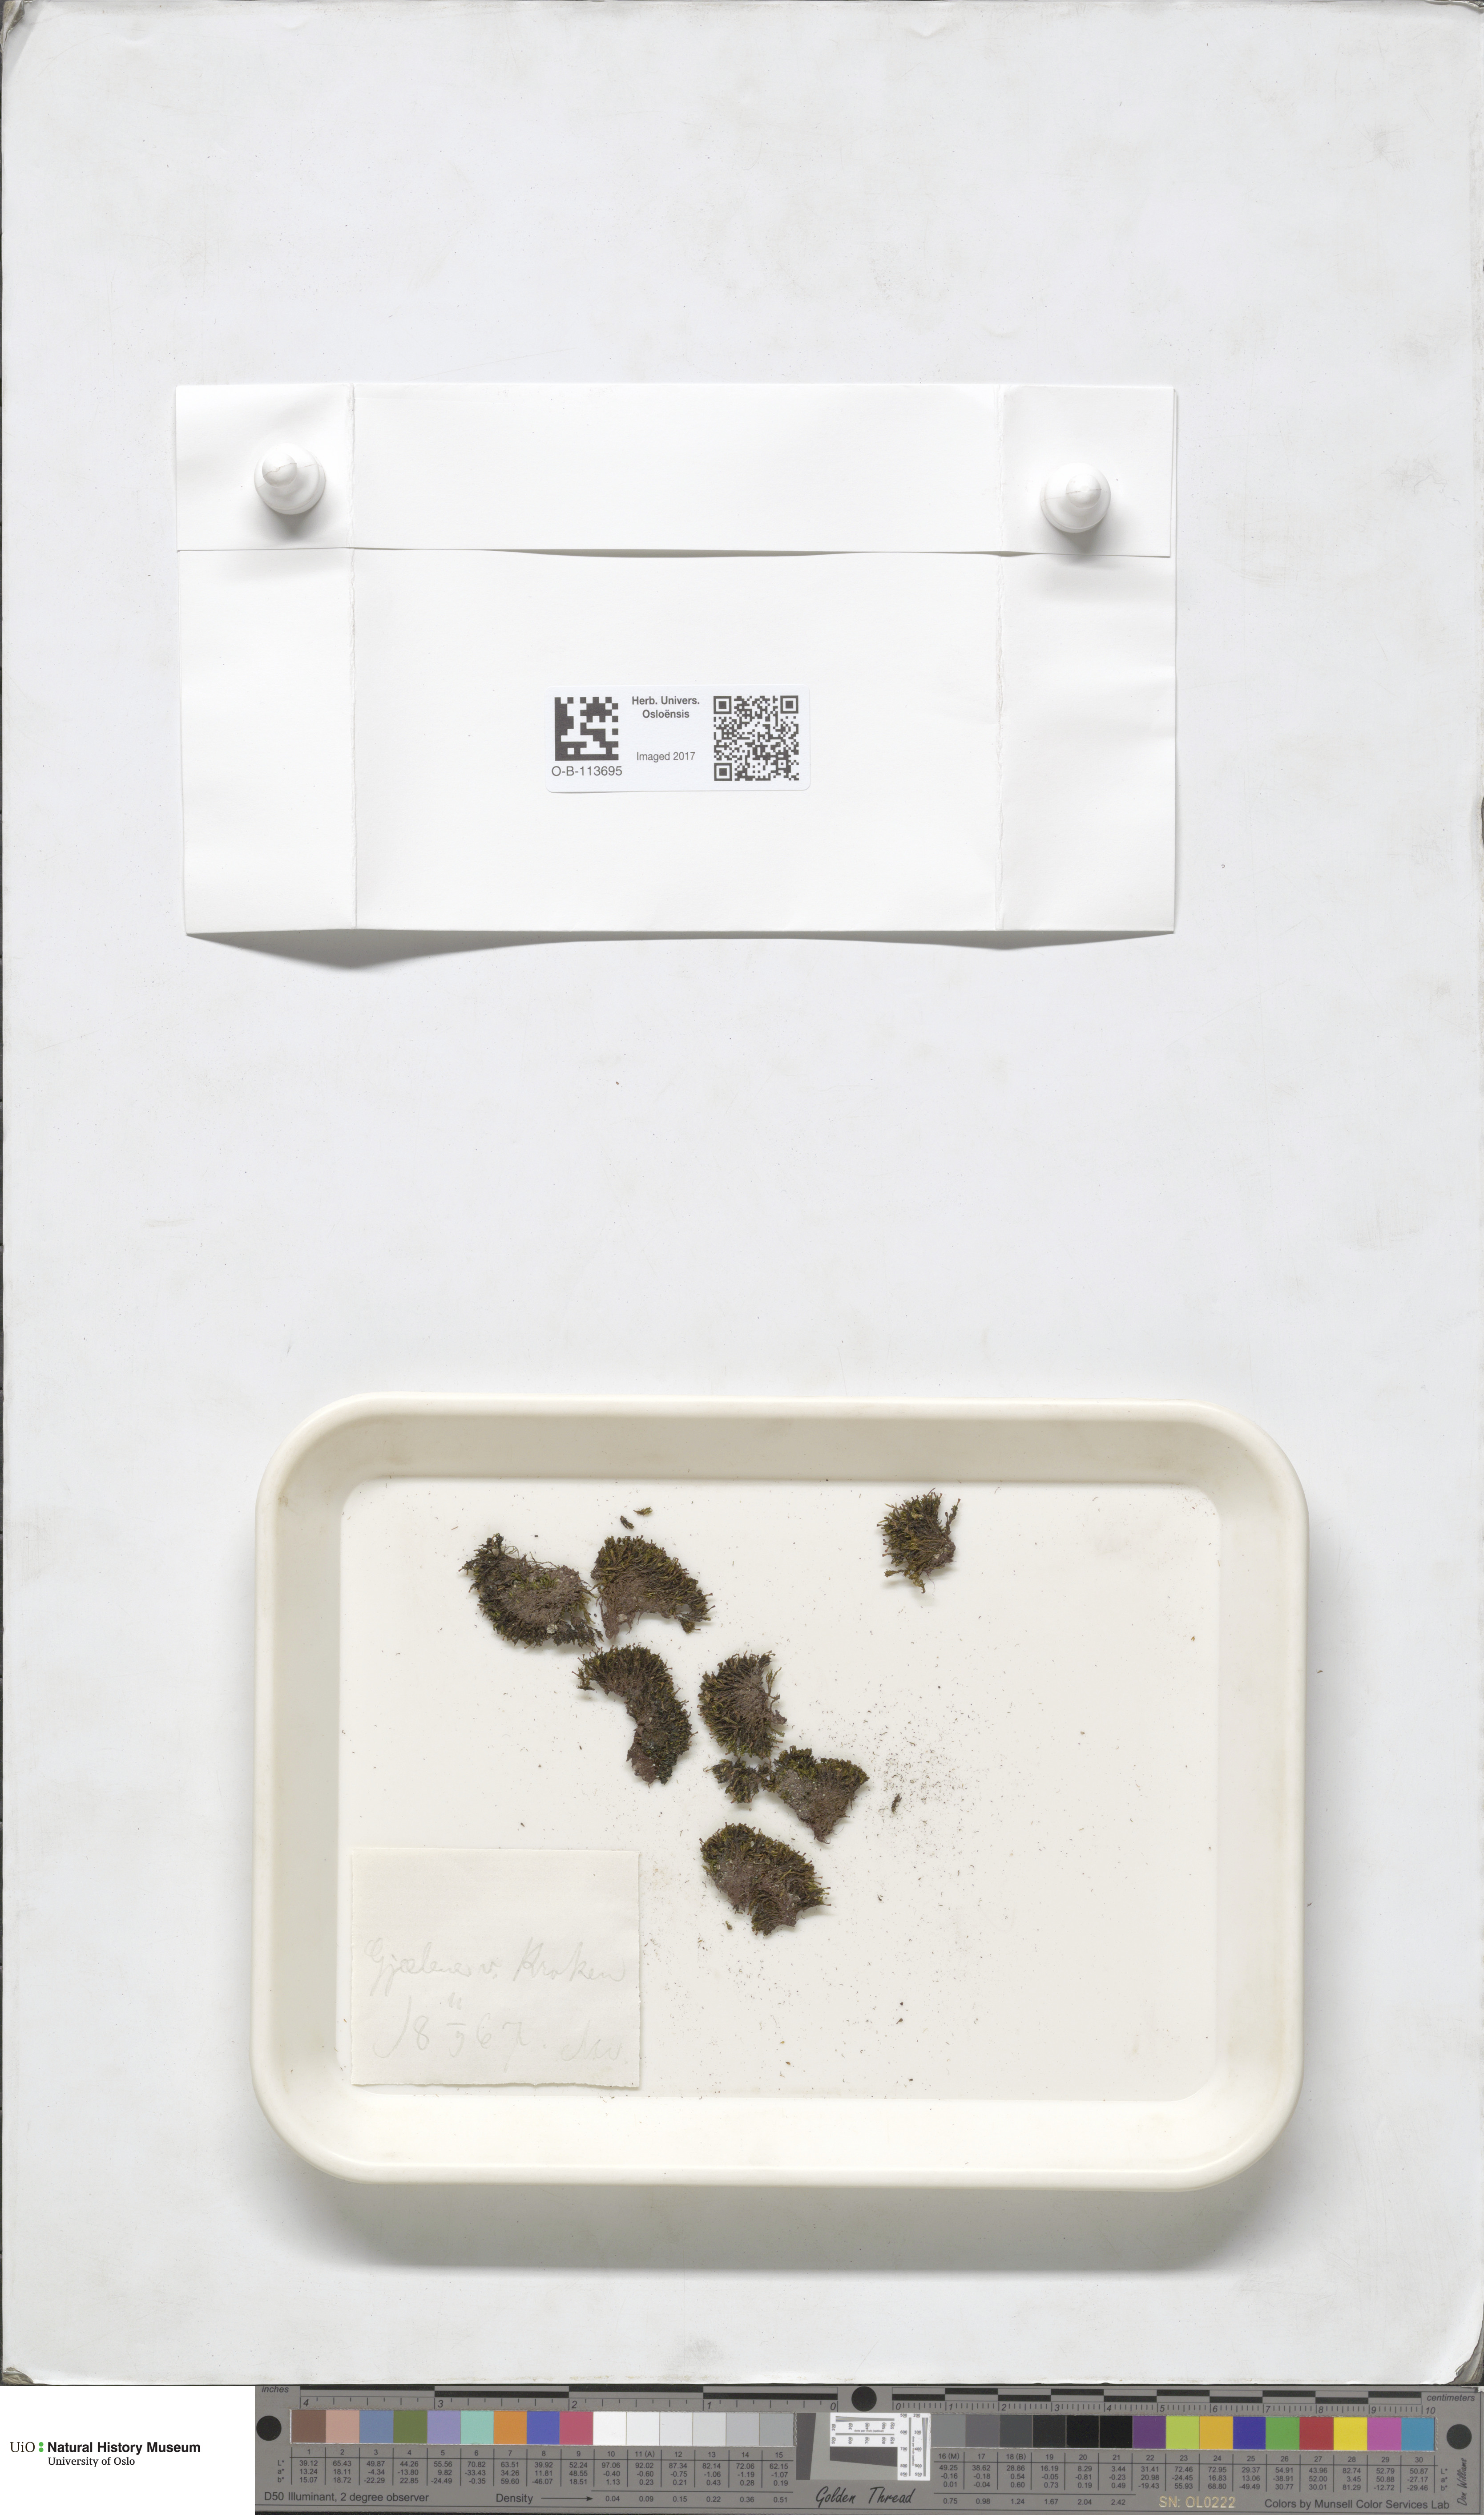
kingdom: Plantae
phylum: Bryophyta
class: Bryopsida
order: Dicranales
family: Amphidiaceae
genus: Amphidium
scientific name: Amphidium lapponicum
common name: Lapland yoke moss
